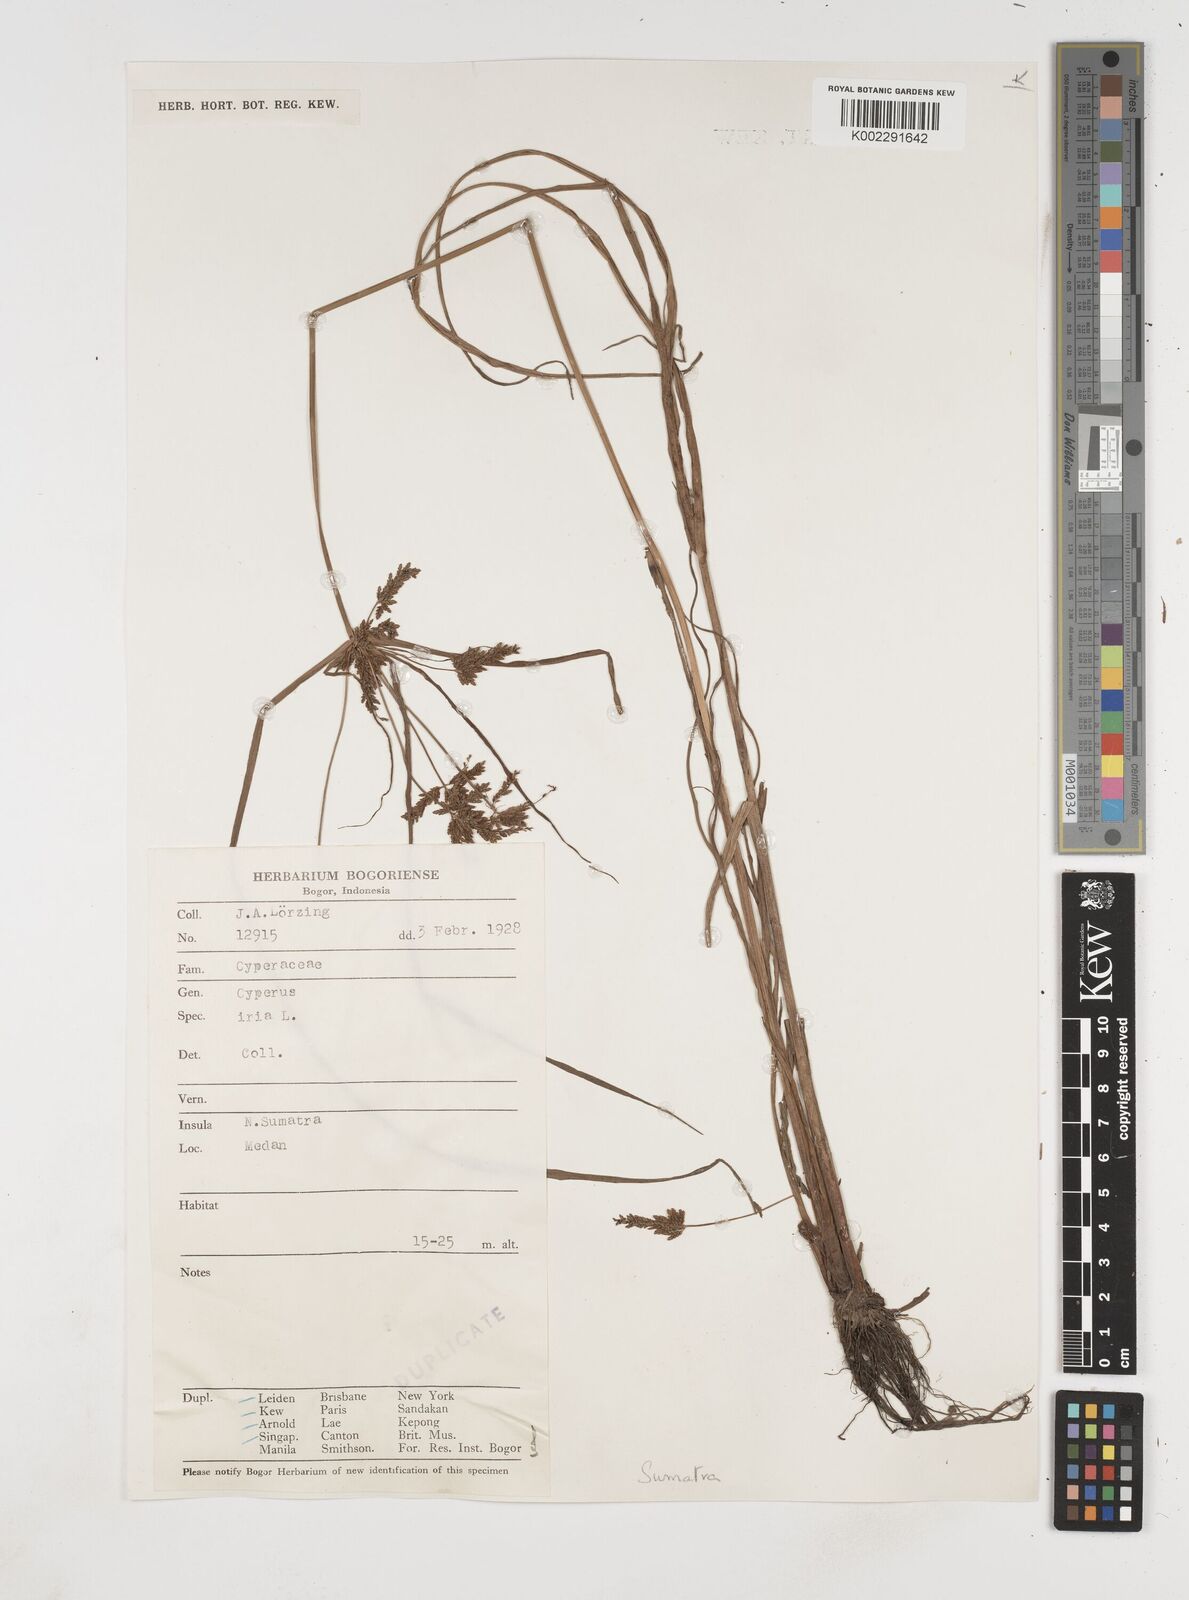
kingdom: Plantae
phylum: Tracheophyta
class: Liliopsida
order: Poales
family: Cyperaceae
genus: Cyperus
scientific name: Cyperus iria
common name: Ricefield flatsedge
